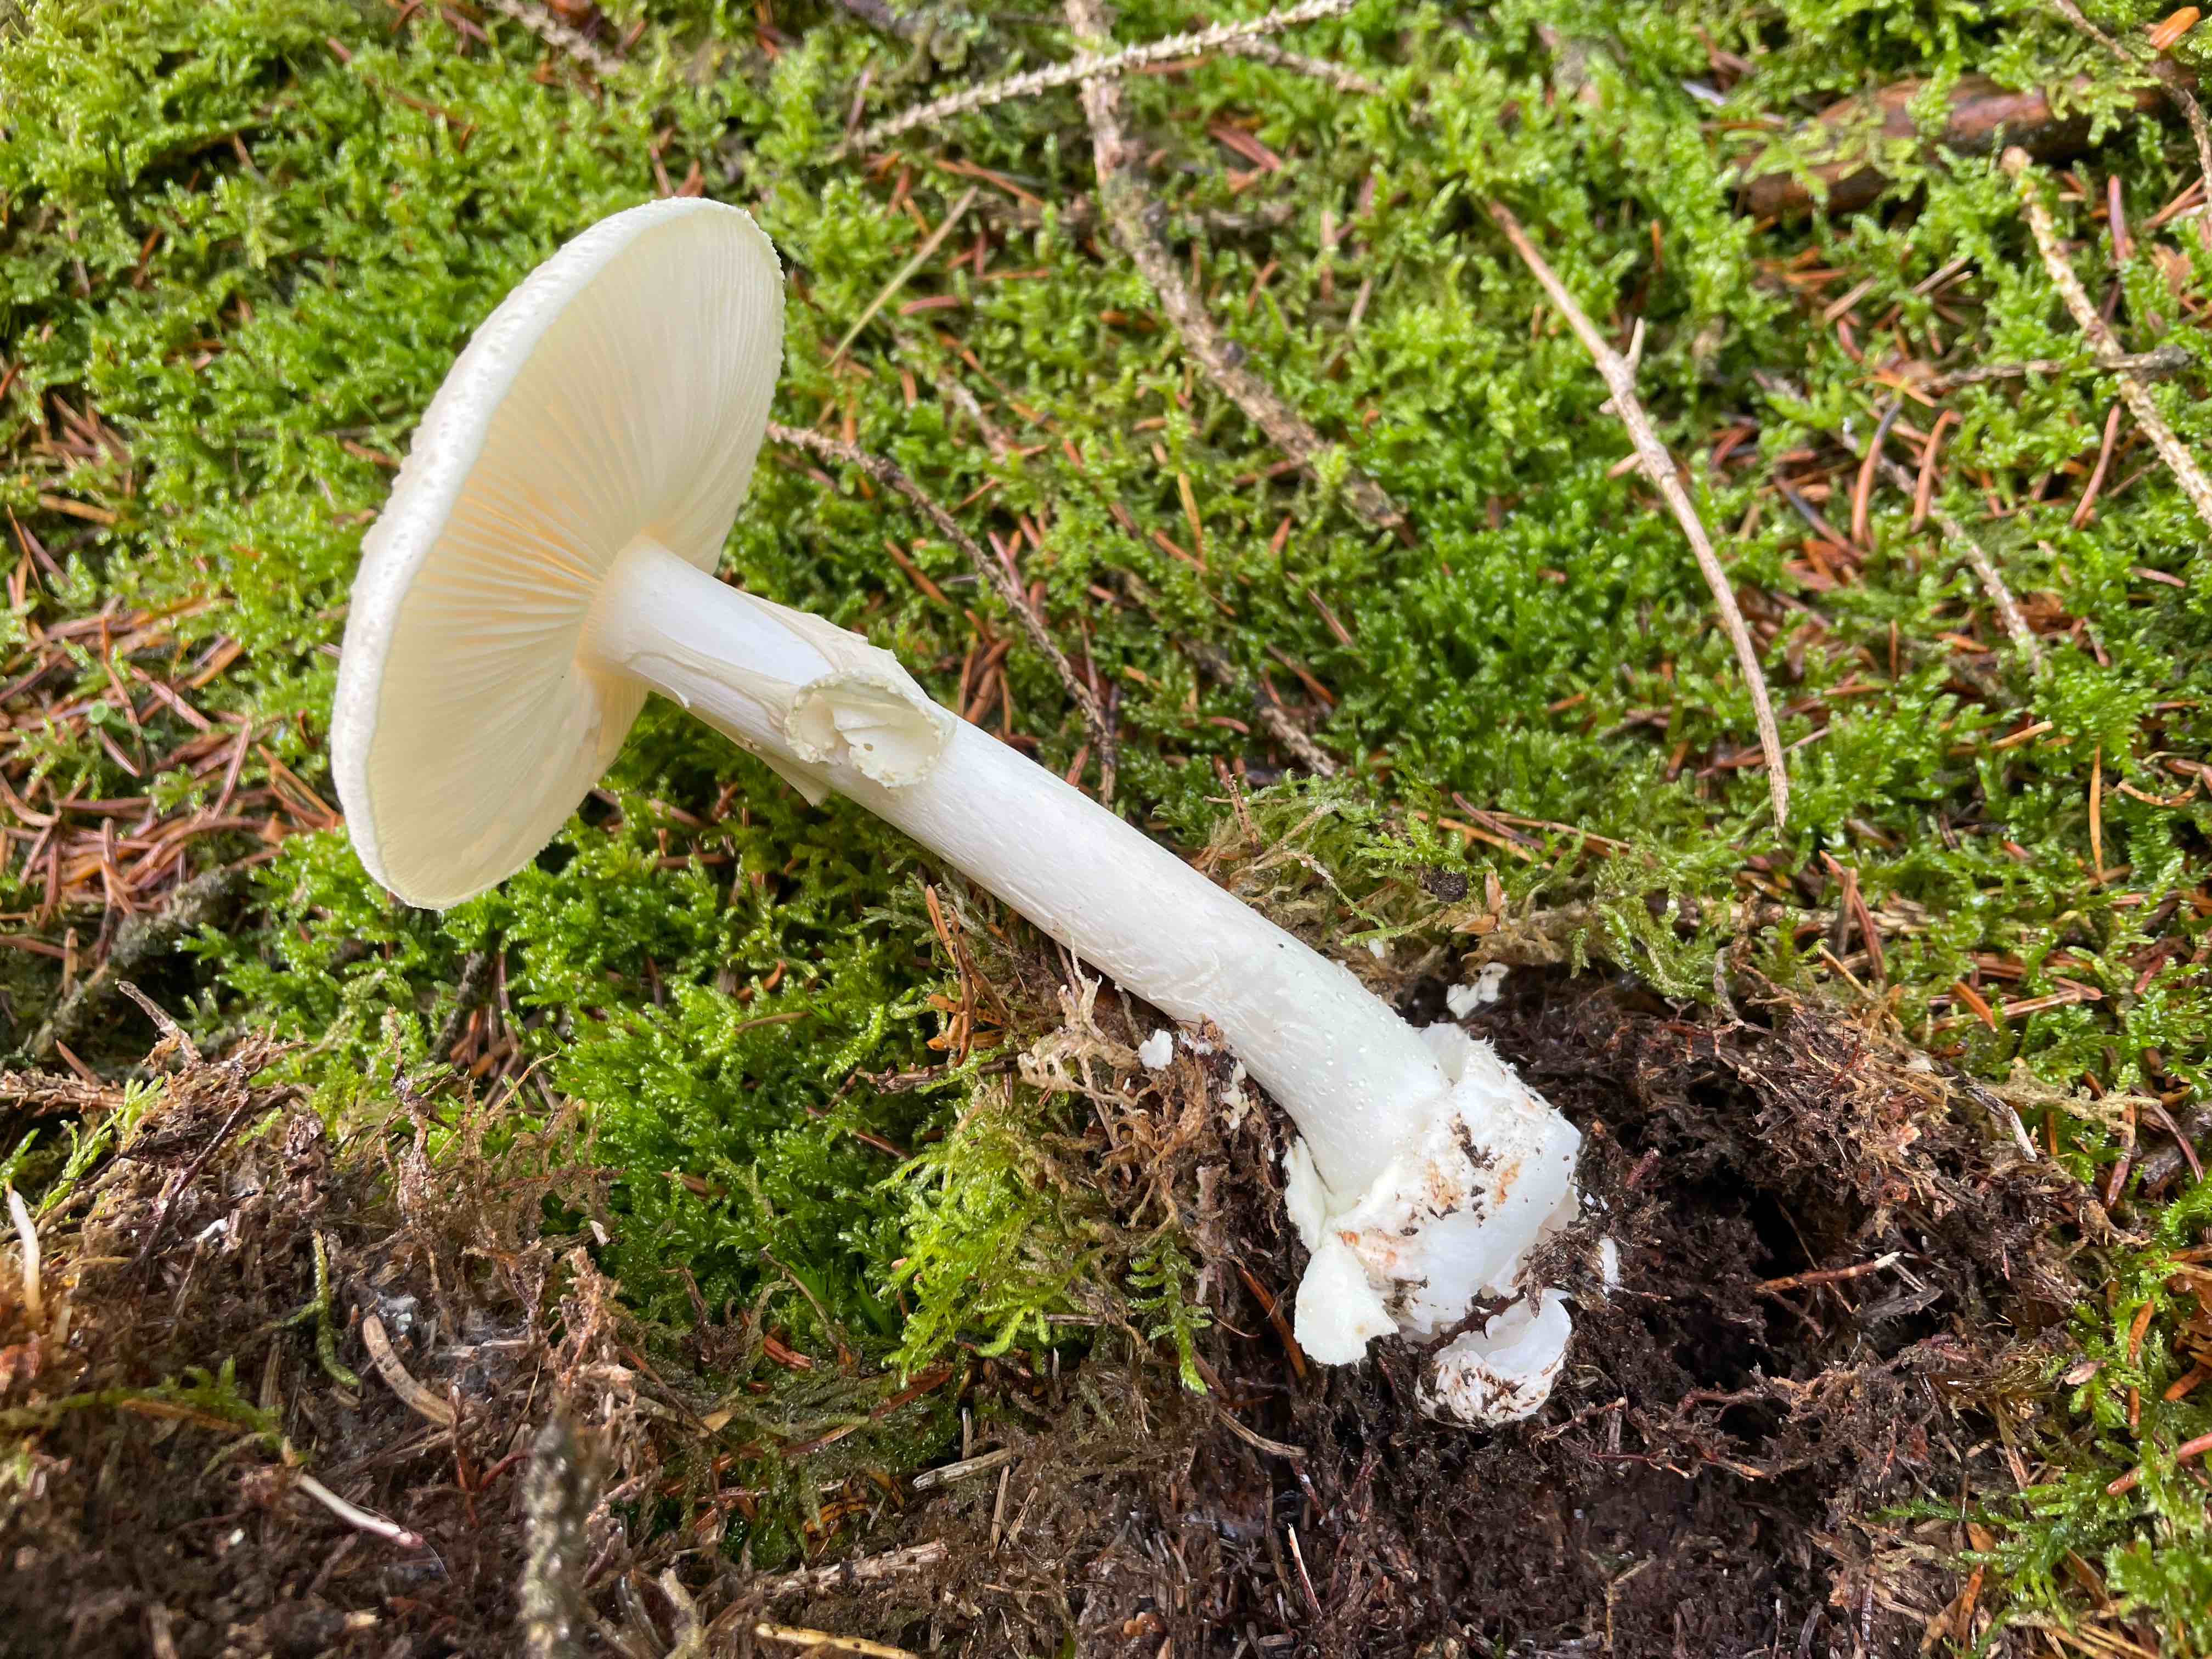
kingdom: Fungi
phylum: Basidiomycota
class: Agaricomycetes
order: Agaricales
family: Amanitaceae
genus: Amanita
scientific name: Amanita citrina
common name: kugleknoldet fluesvamp
